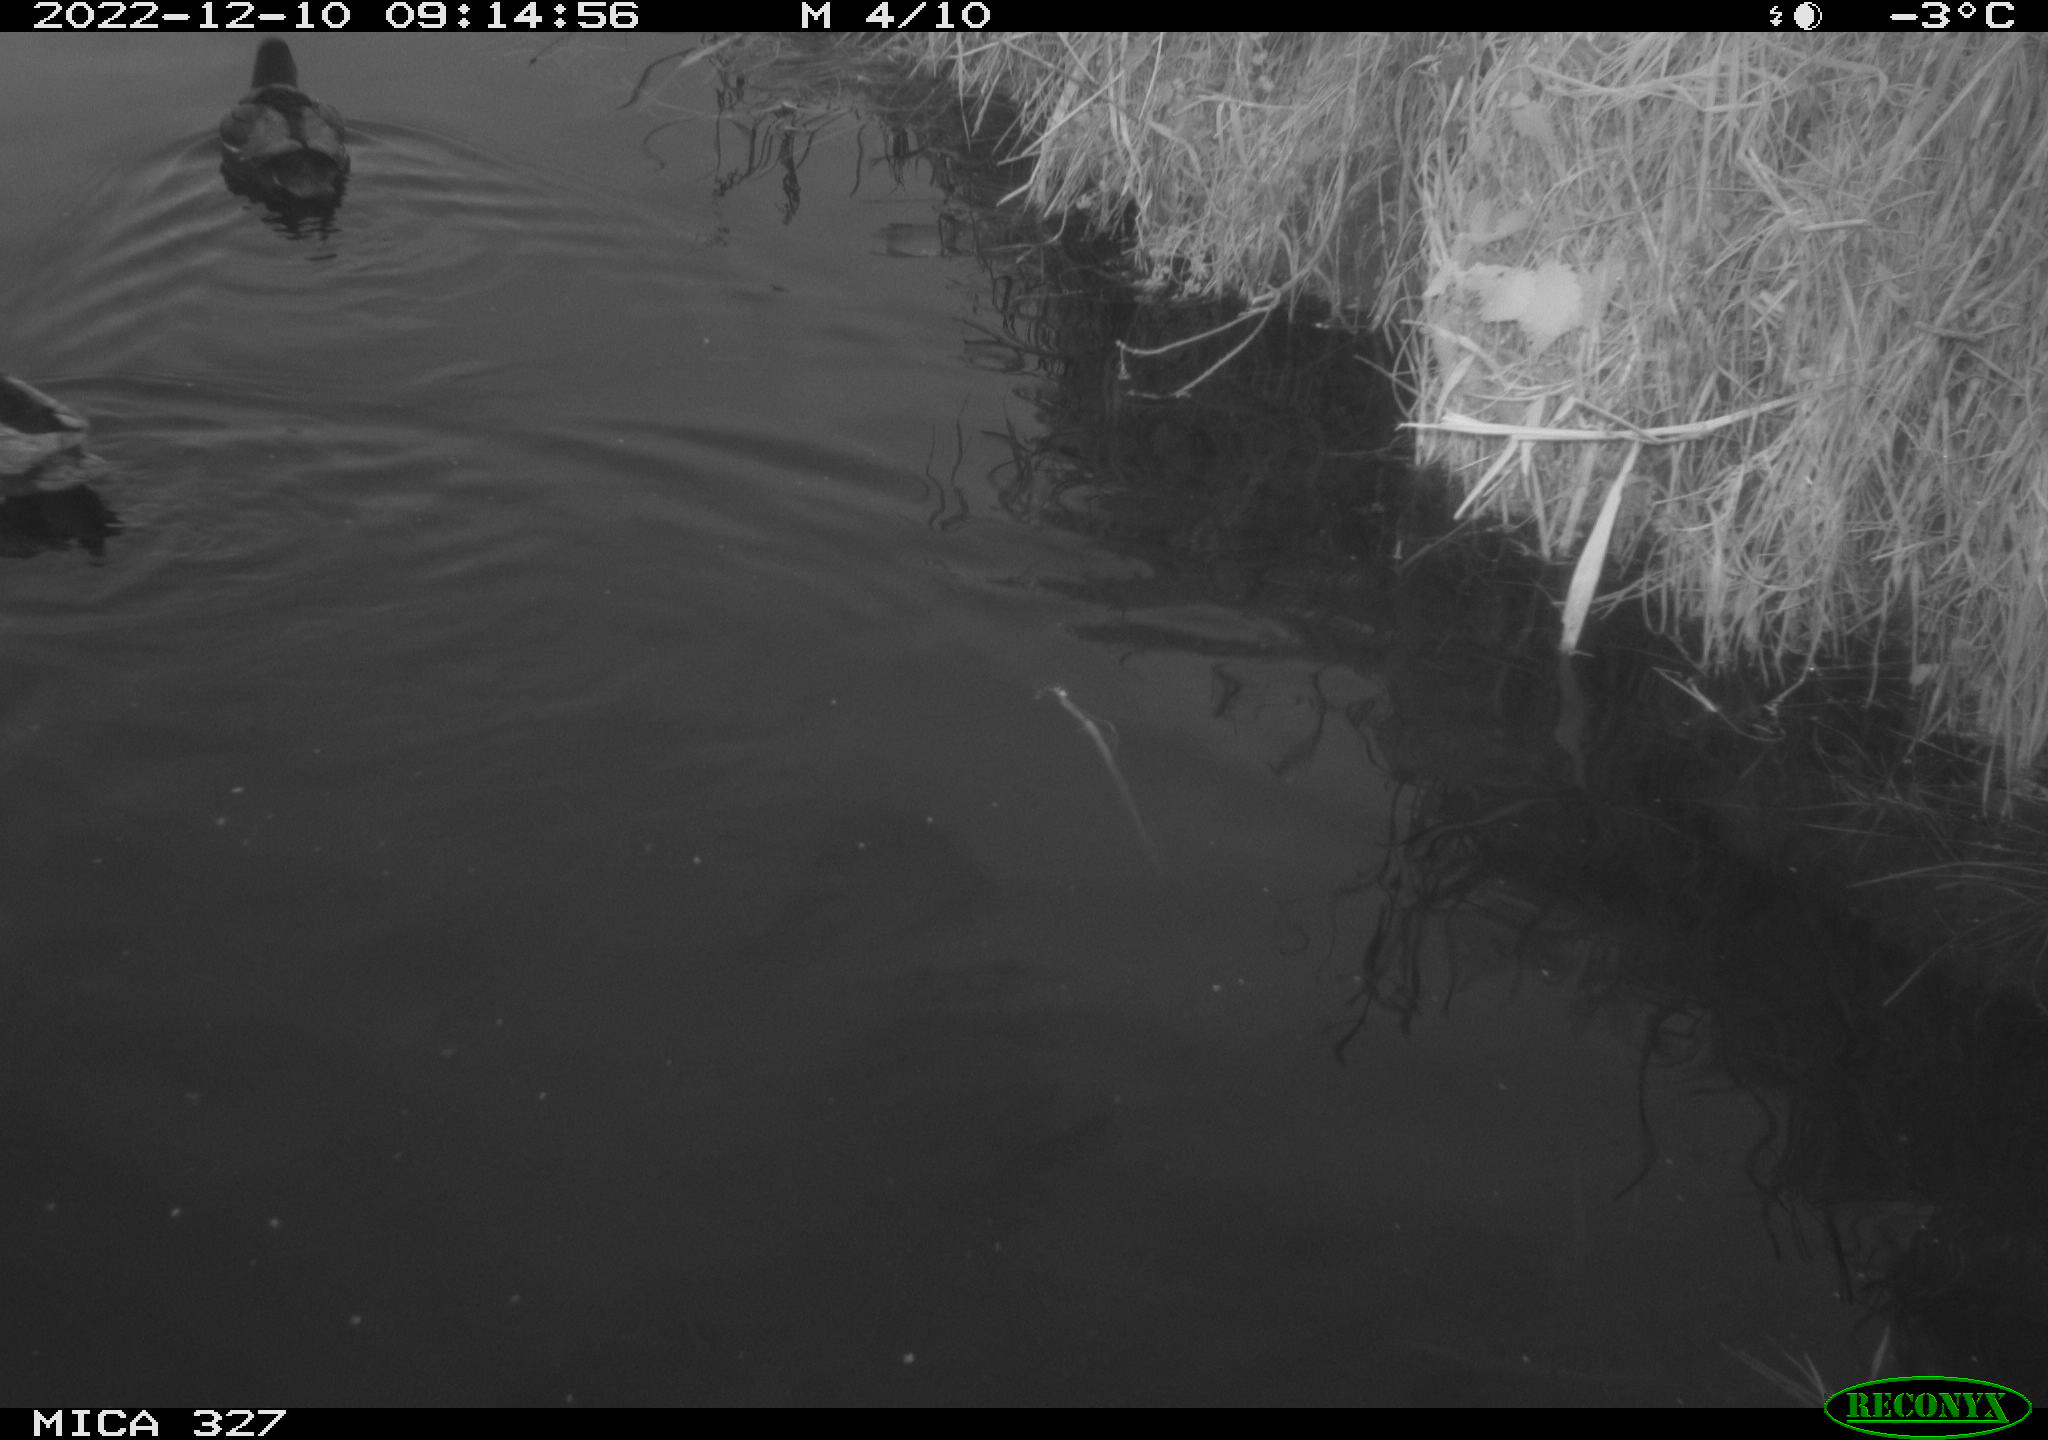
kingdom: Animalia
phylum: Chordata
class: Aves
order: Gruiformes
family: Rallidae
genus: Gallinula
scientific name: Gallinula chloropus
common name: Common moorhen
